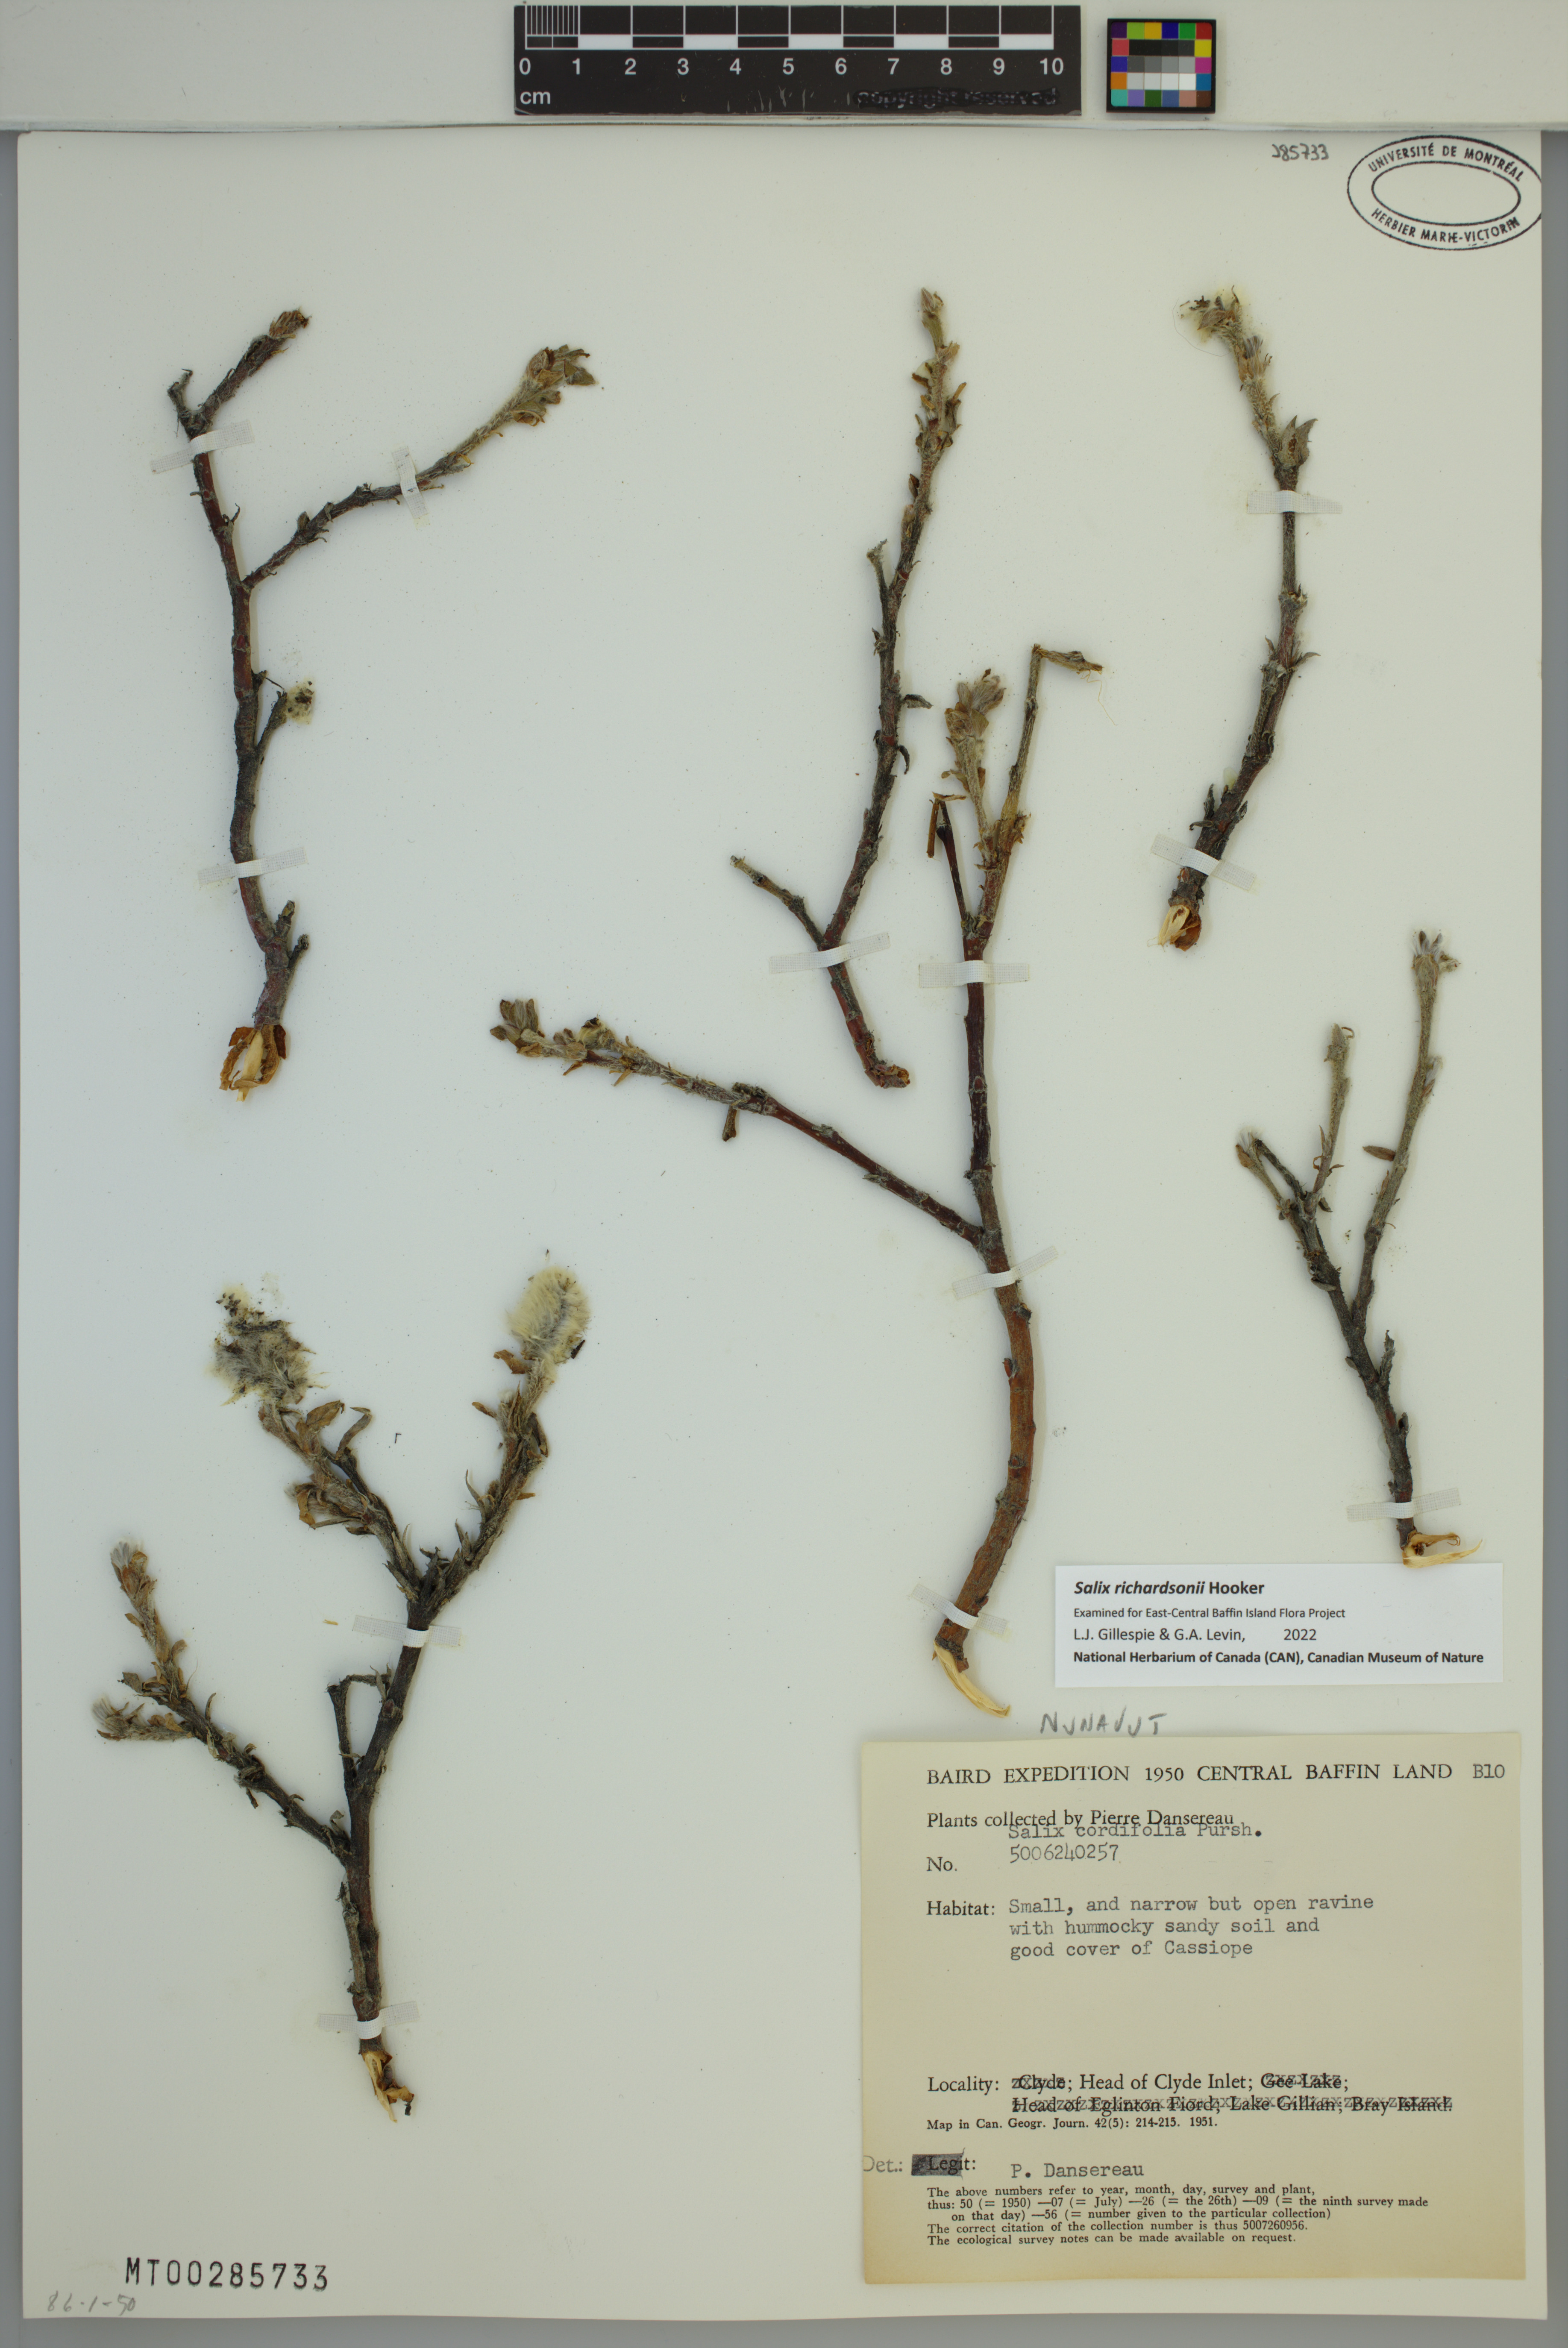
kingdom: Plantae
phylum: Tracheophyta
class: Magnoliopsida
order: Malpighiales
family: Salicaceae
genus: Salix
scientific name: Salix richardsonii
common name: Richardson’s willow
